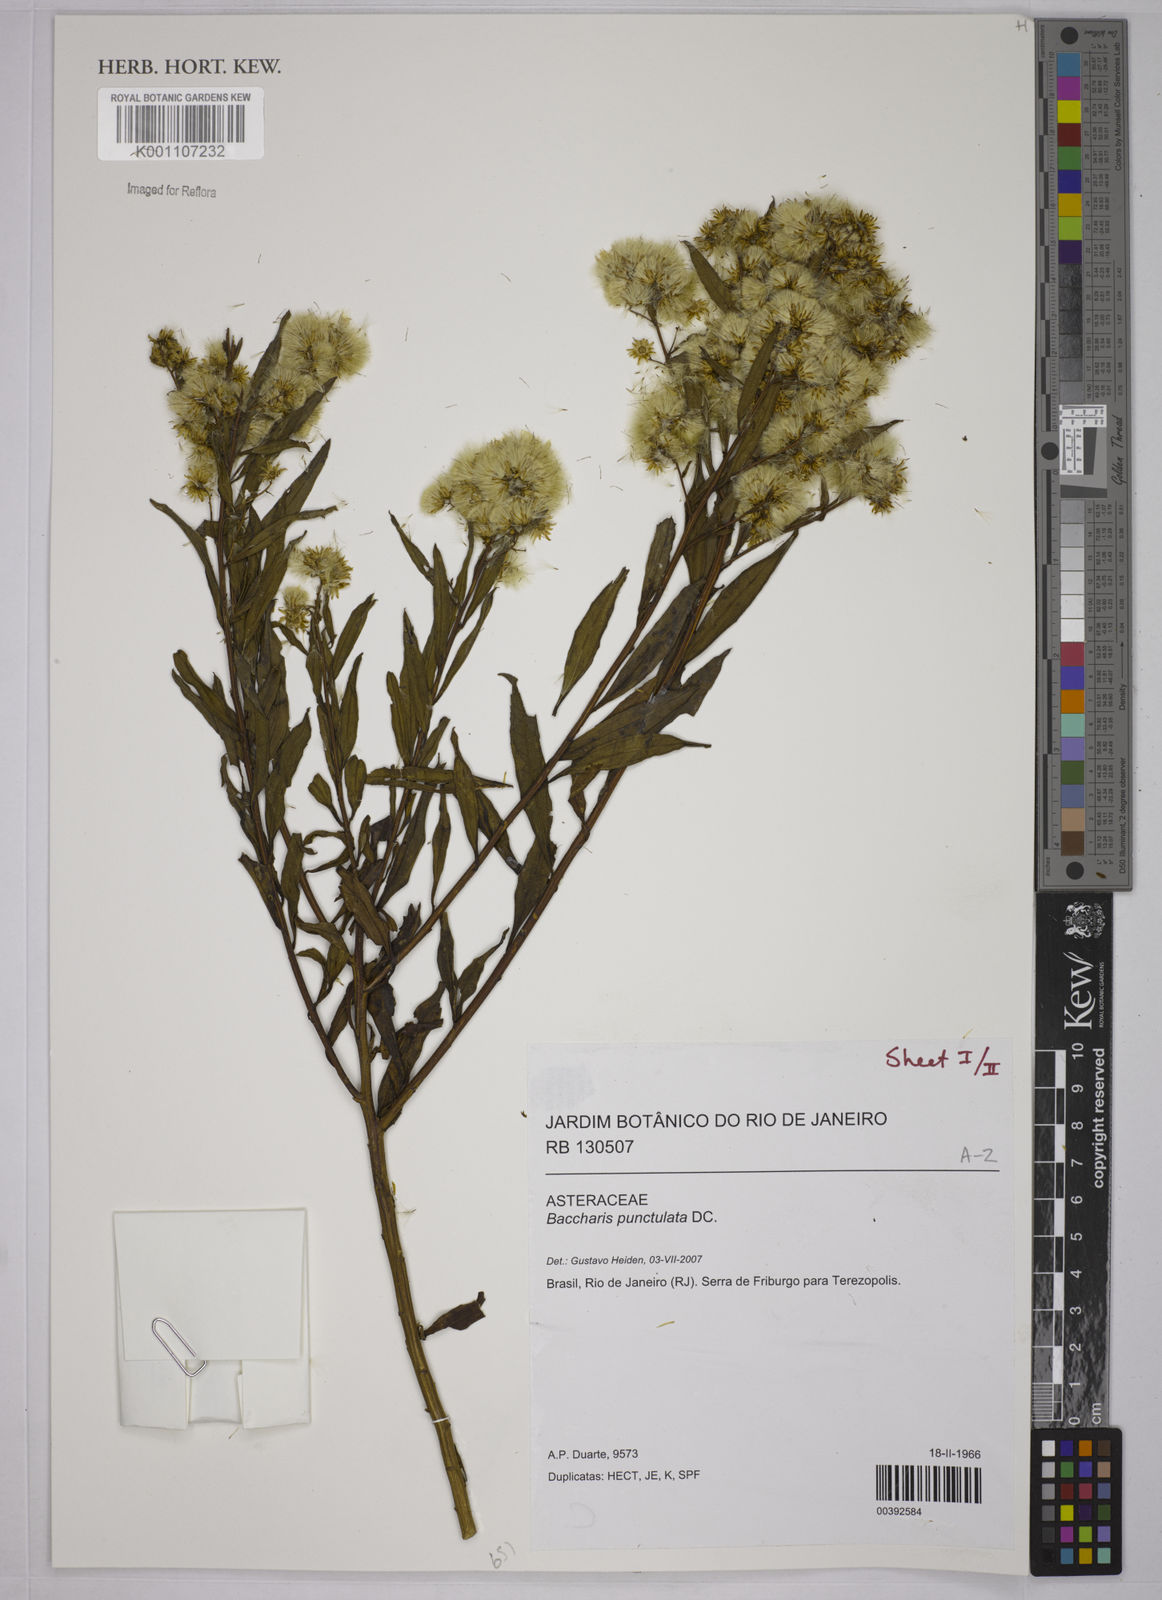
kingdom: Plantae
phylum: Tracheophyta
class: Magnoliopsida
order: Asterales
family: Asteraceae
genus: Baccharis
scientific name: Baccharis punctulata
